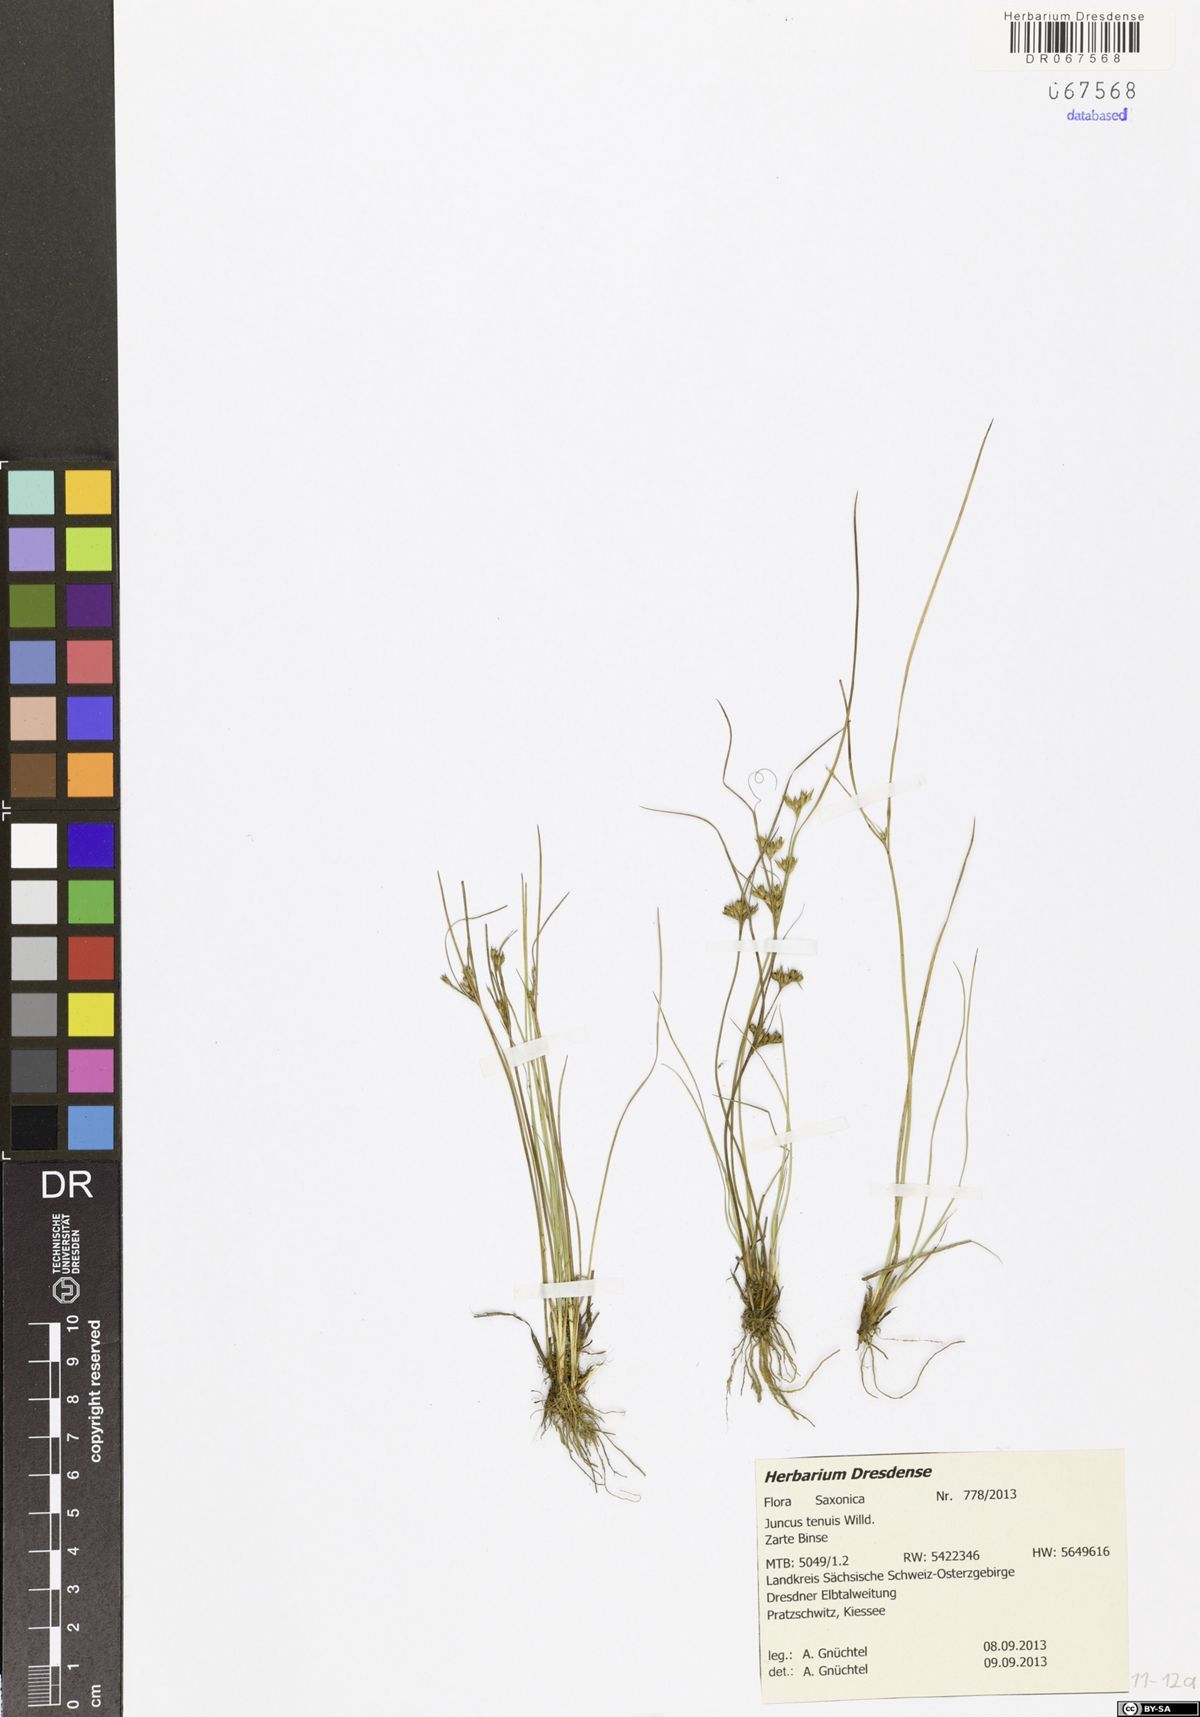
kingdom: Plantae
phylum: Tracheophyta
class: Liliopsida
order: Poales
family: Juncaceae
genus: Juncus
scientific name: Juncus tenuis
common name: Slender rush
